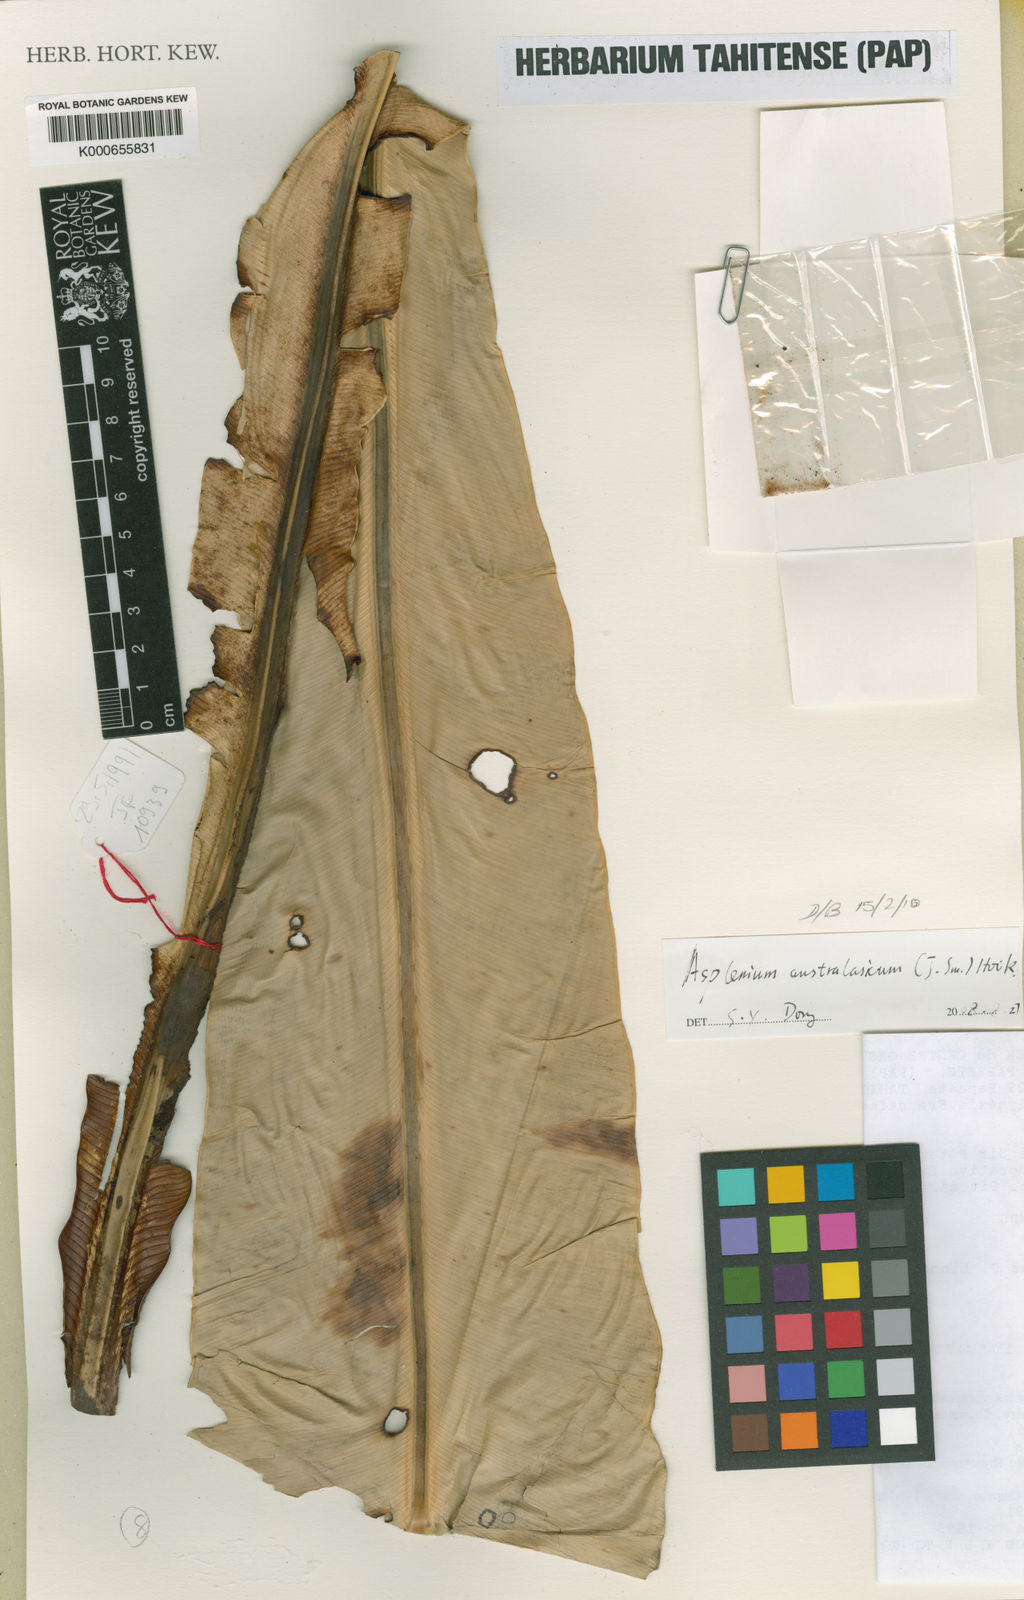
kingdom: Plantae
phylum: Tracheophyta
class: Polypodiopsida
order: Polypodiales
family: Aspleniaceae
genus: Asplenium
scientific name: Asplenium
